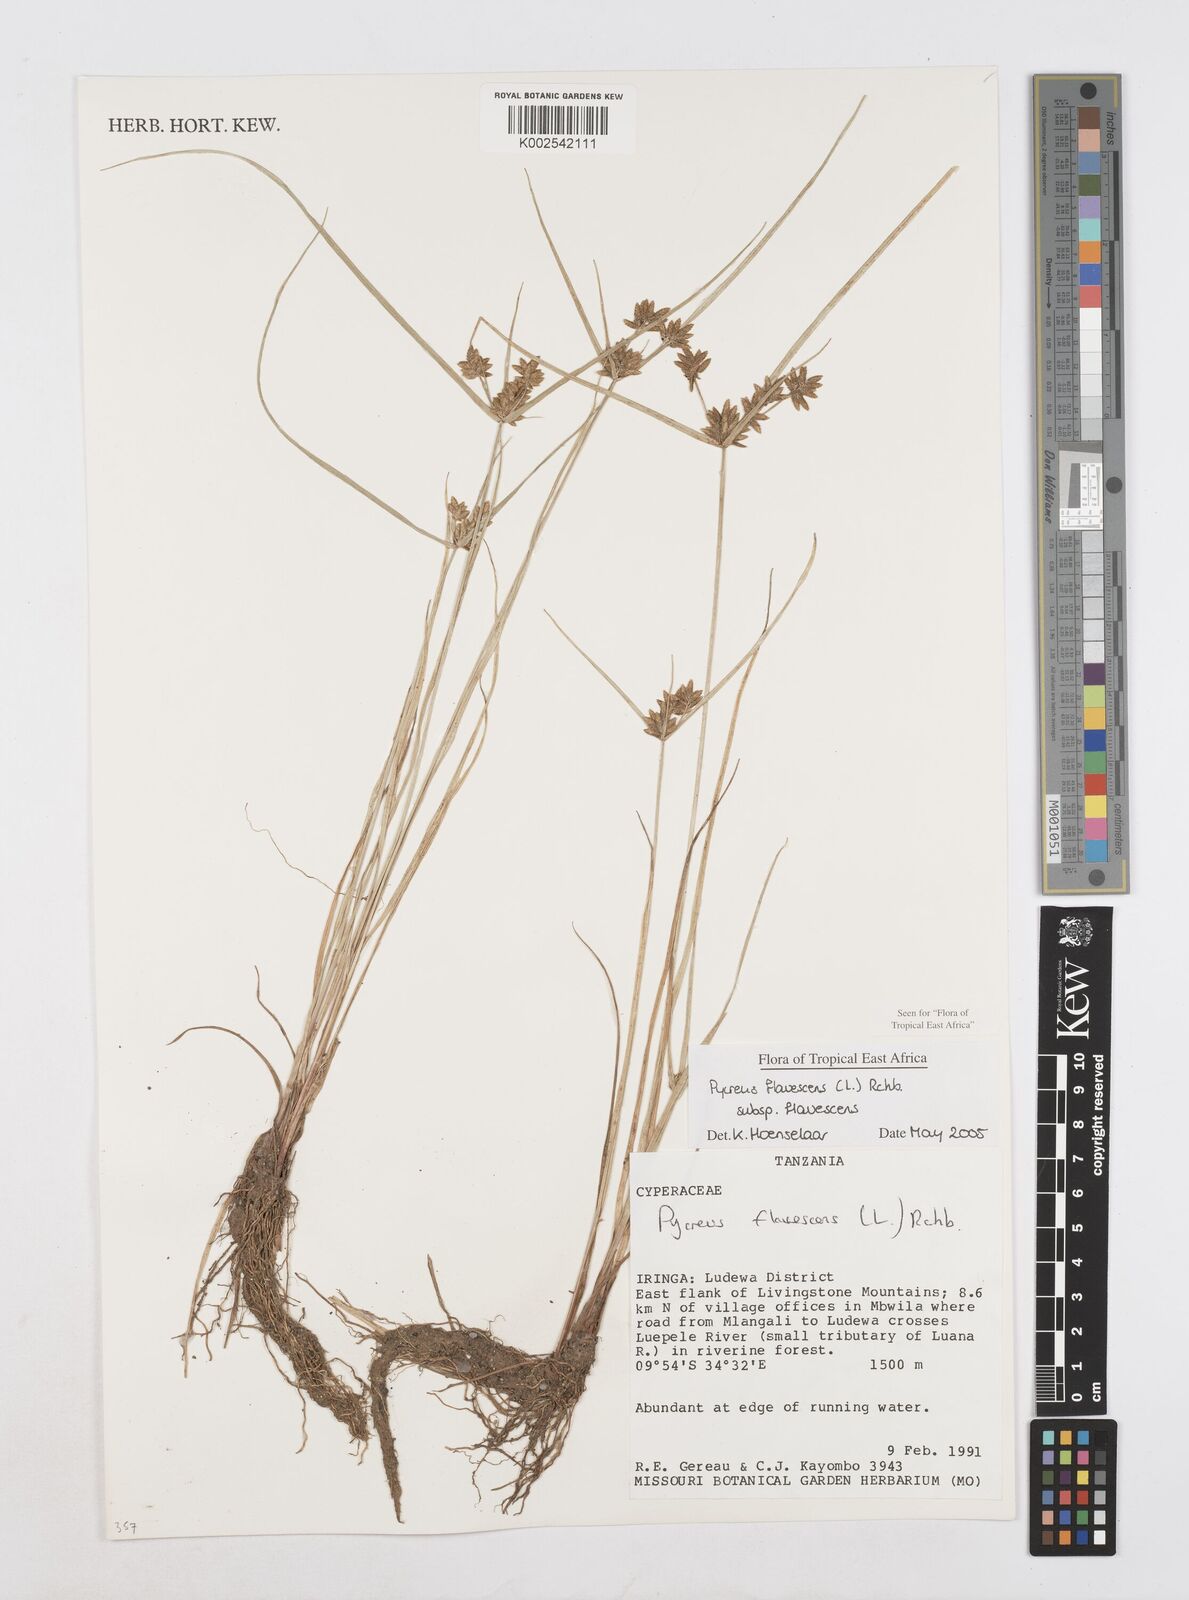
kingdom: Plantae
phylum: Tracheophyta
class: Liliopsida
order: Poales
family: Cyperaceae
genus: Cyperus
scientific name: Cyperus flavescens
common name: Yellow galingale
